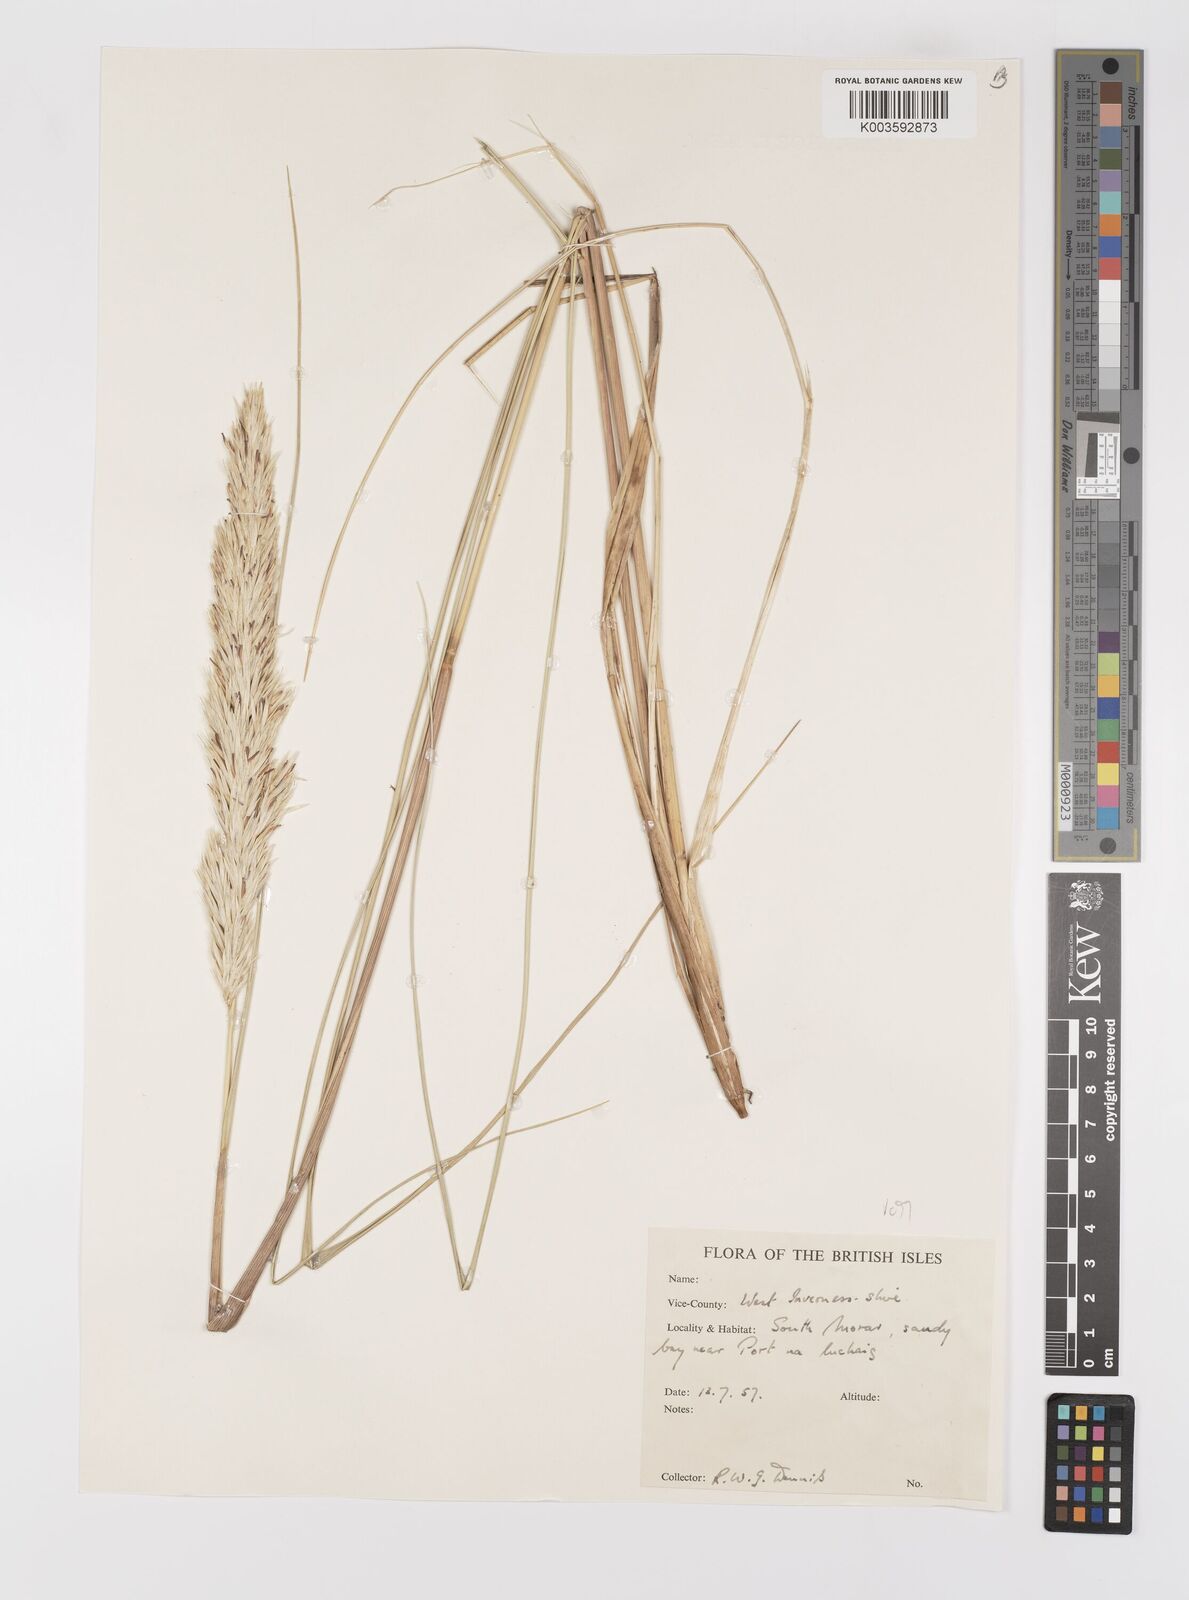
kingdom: Plantae
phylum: Tracheophyta
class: Liliopsida
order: Poales
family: Poaceae
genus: Calamagrostis
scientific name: Calamagrostis arenaria
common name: European beachgrass
